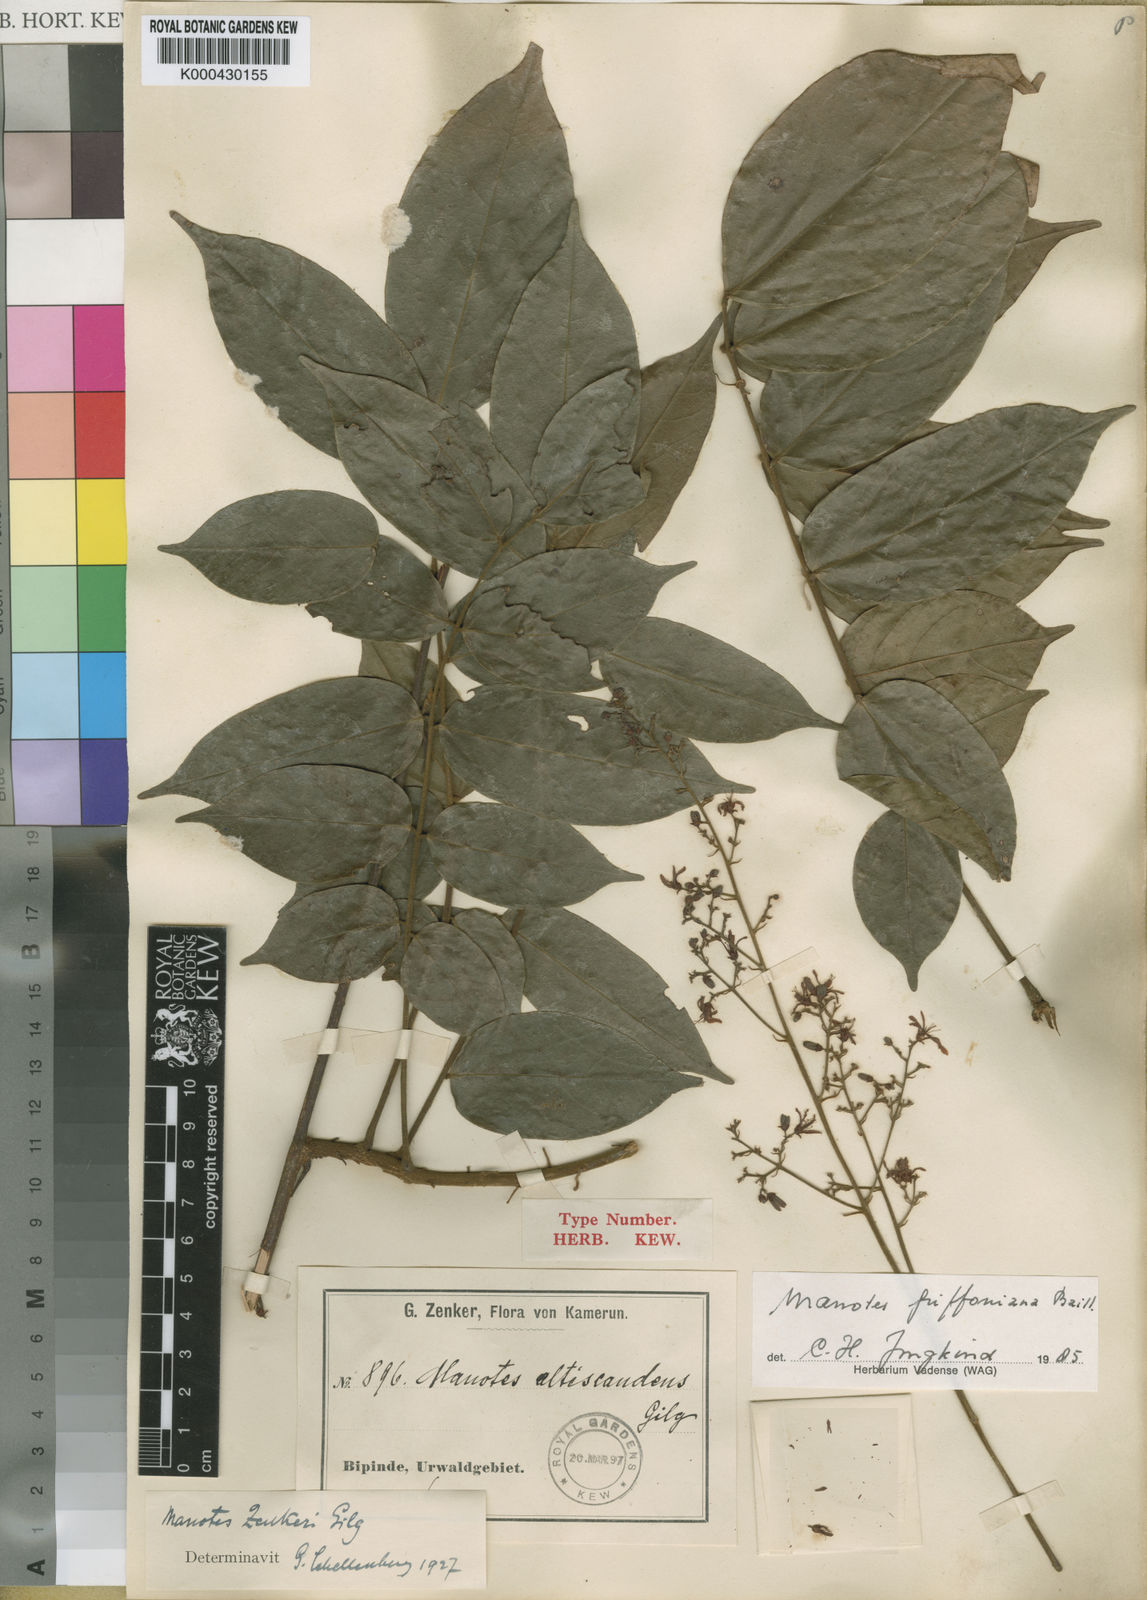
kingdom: Plantae
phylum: Tracheophyta
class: Magnoliopsida
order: Oxalidales
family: Connaraceae
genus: Manotes
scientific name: Manotes griffoniana
